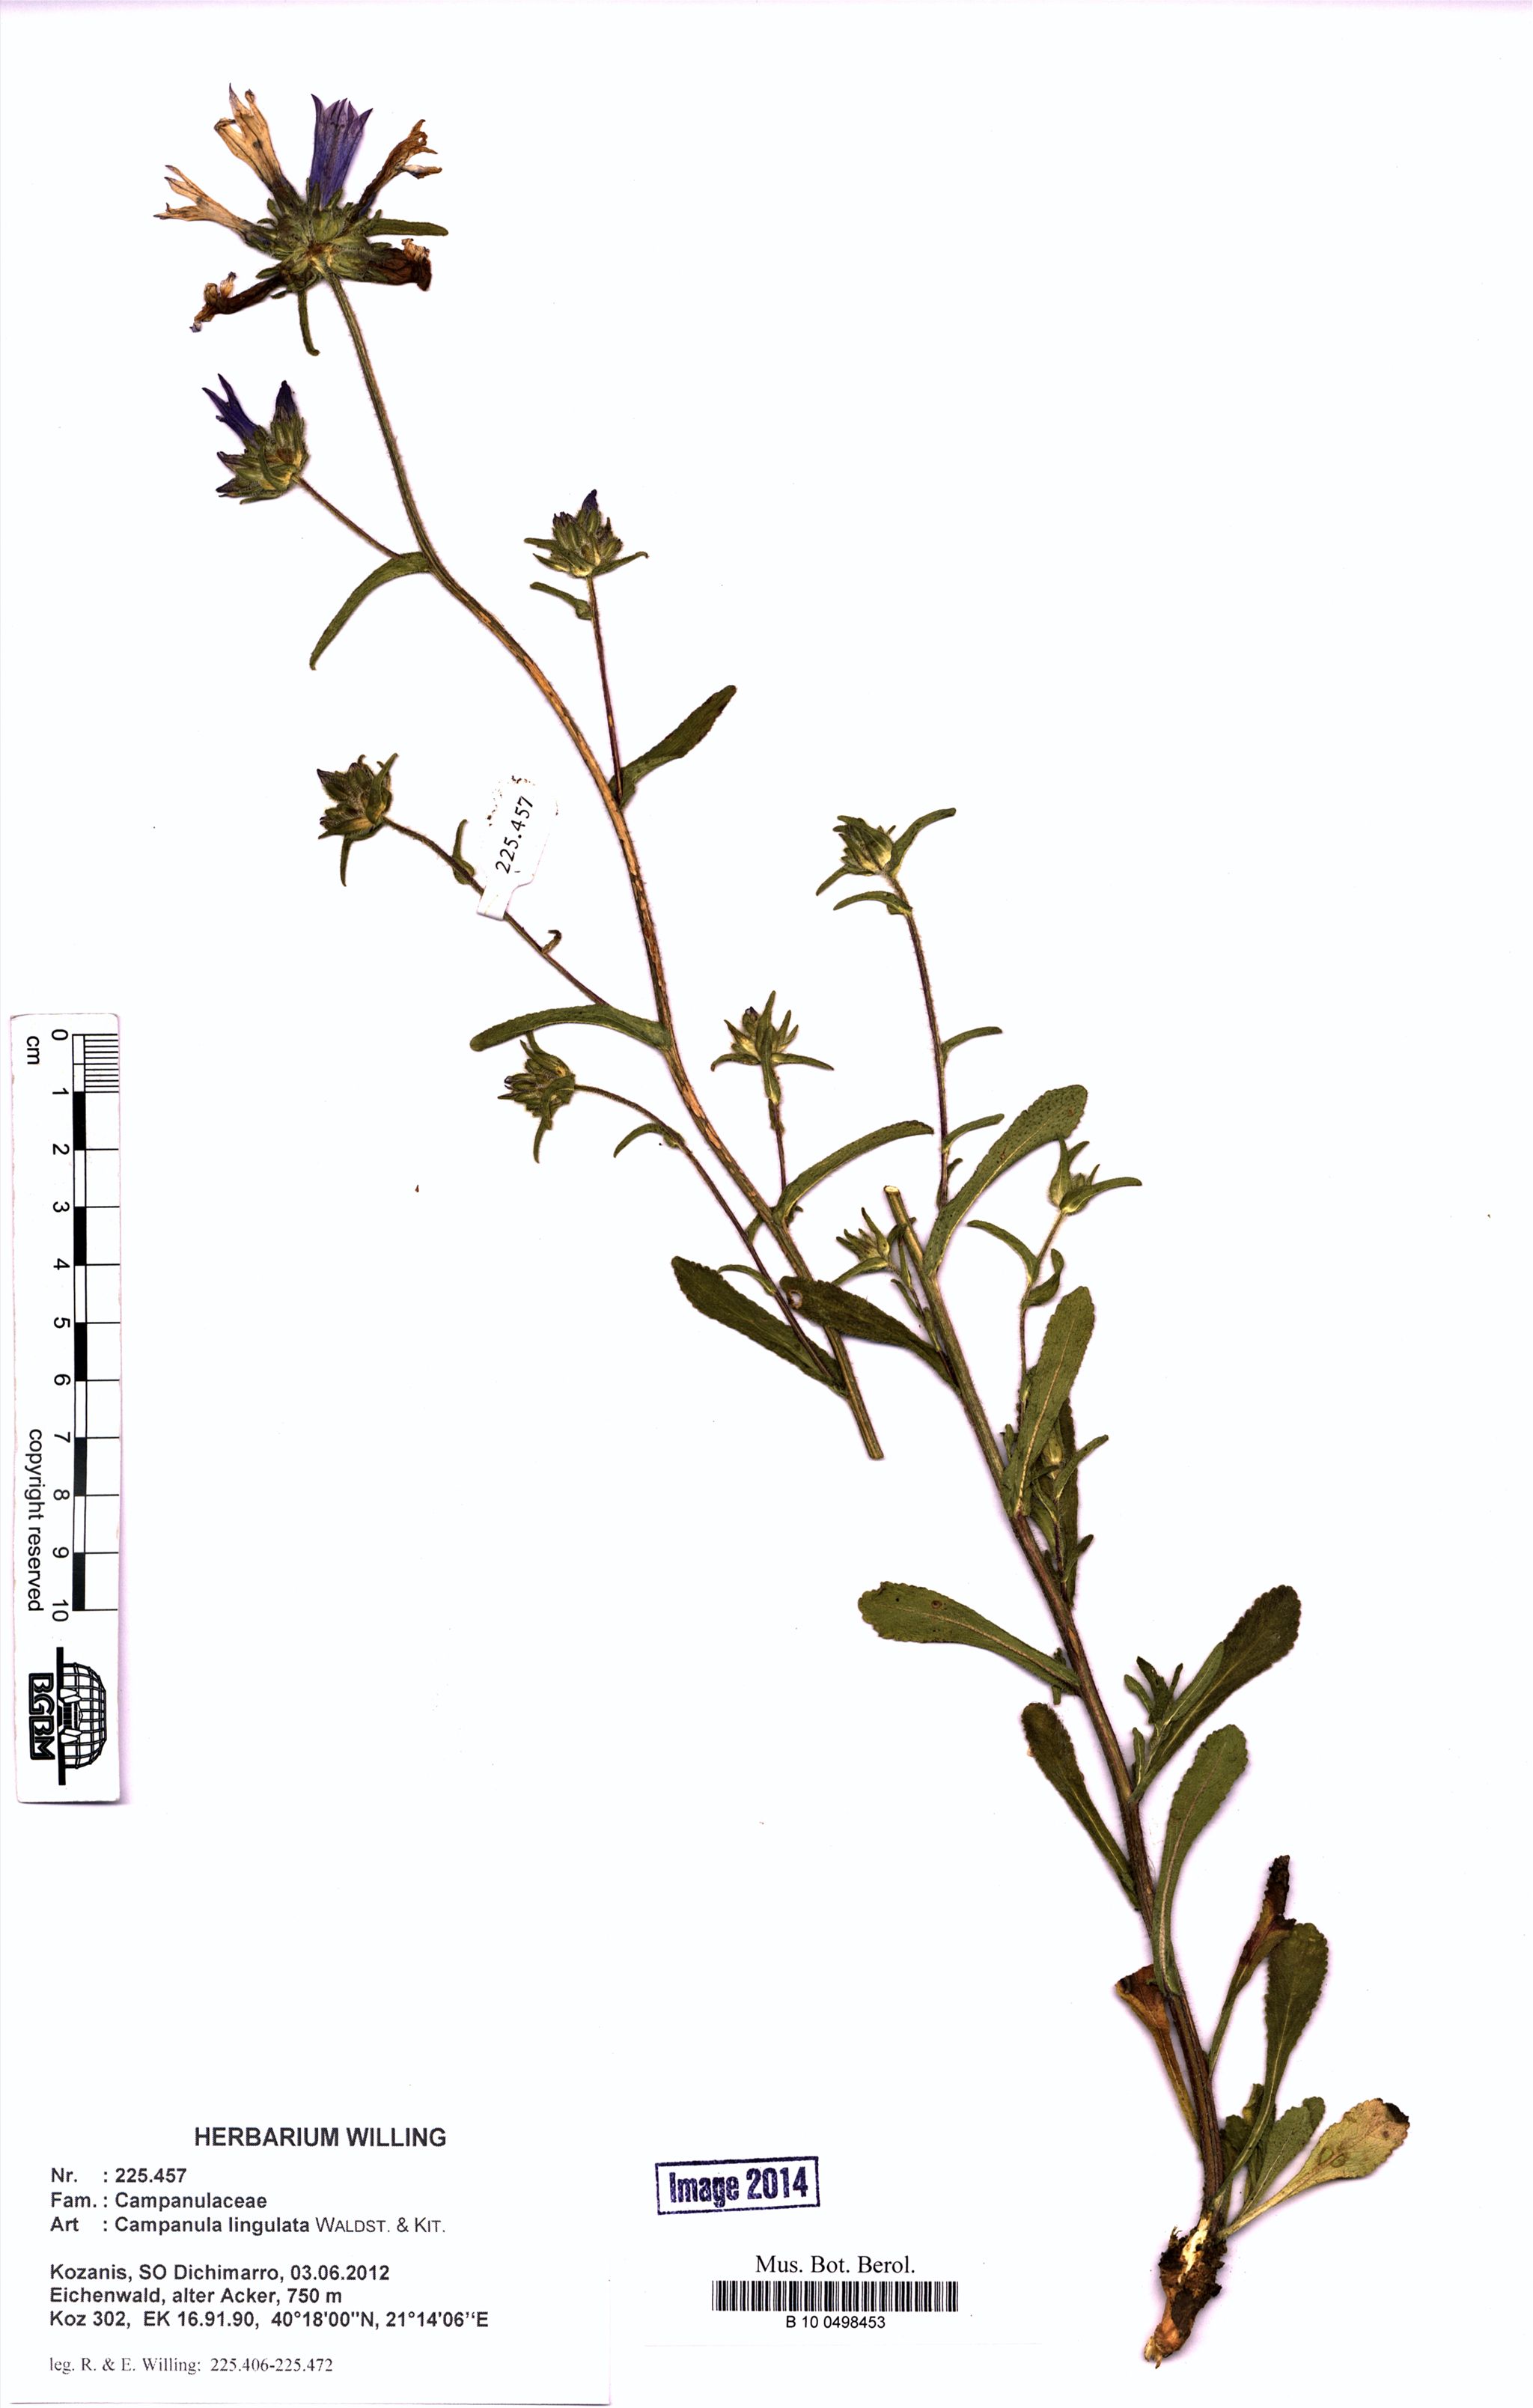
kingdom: Plantae
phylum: Tracheophyta
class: Magnoliopsida
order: Asterales
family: Campanulaceae
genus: Campanula
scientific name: Campanula lingulata
